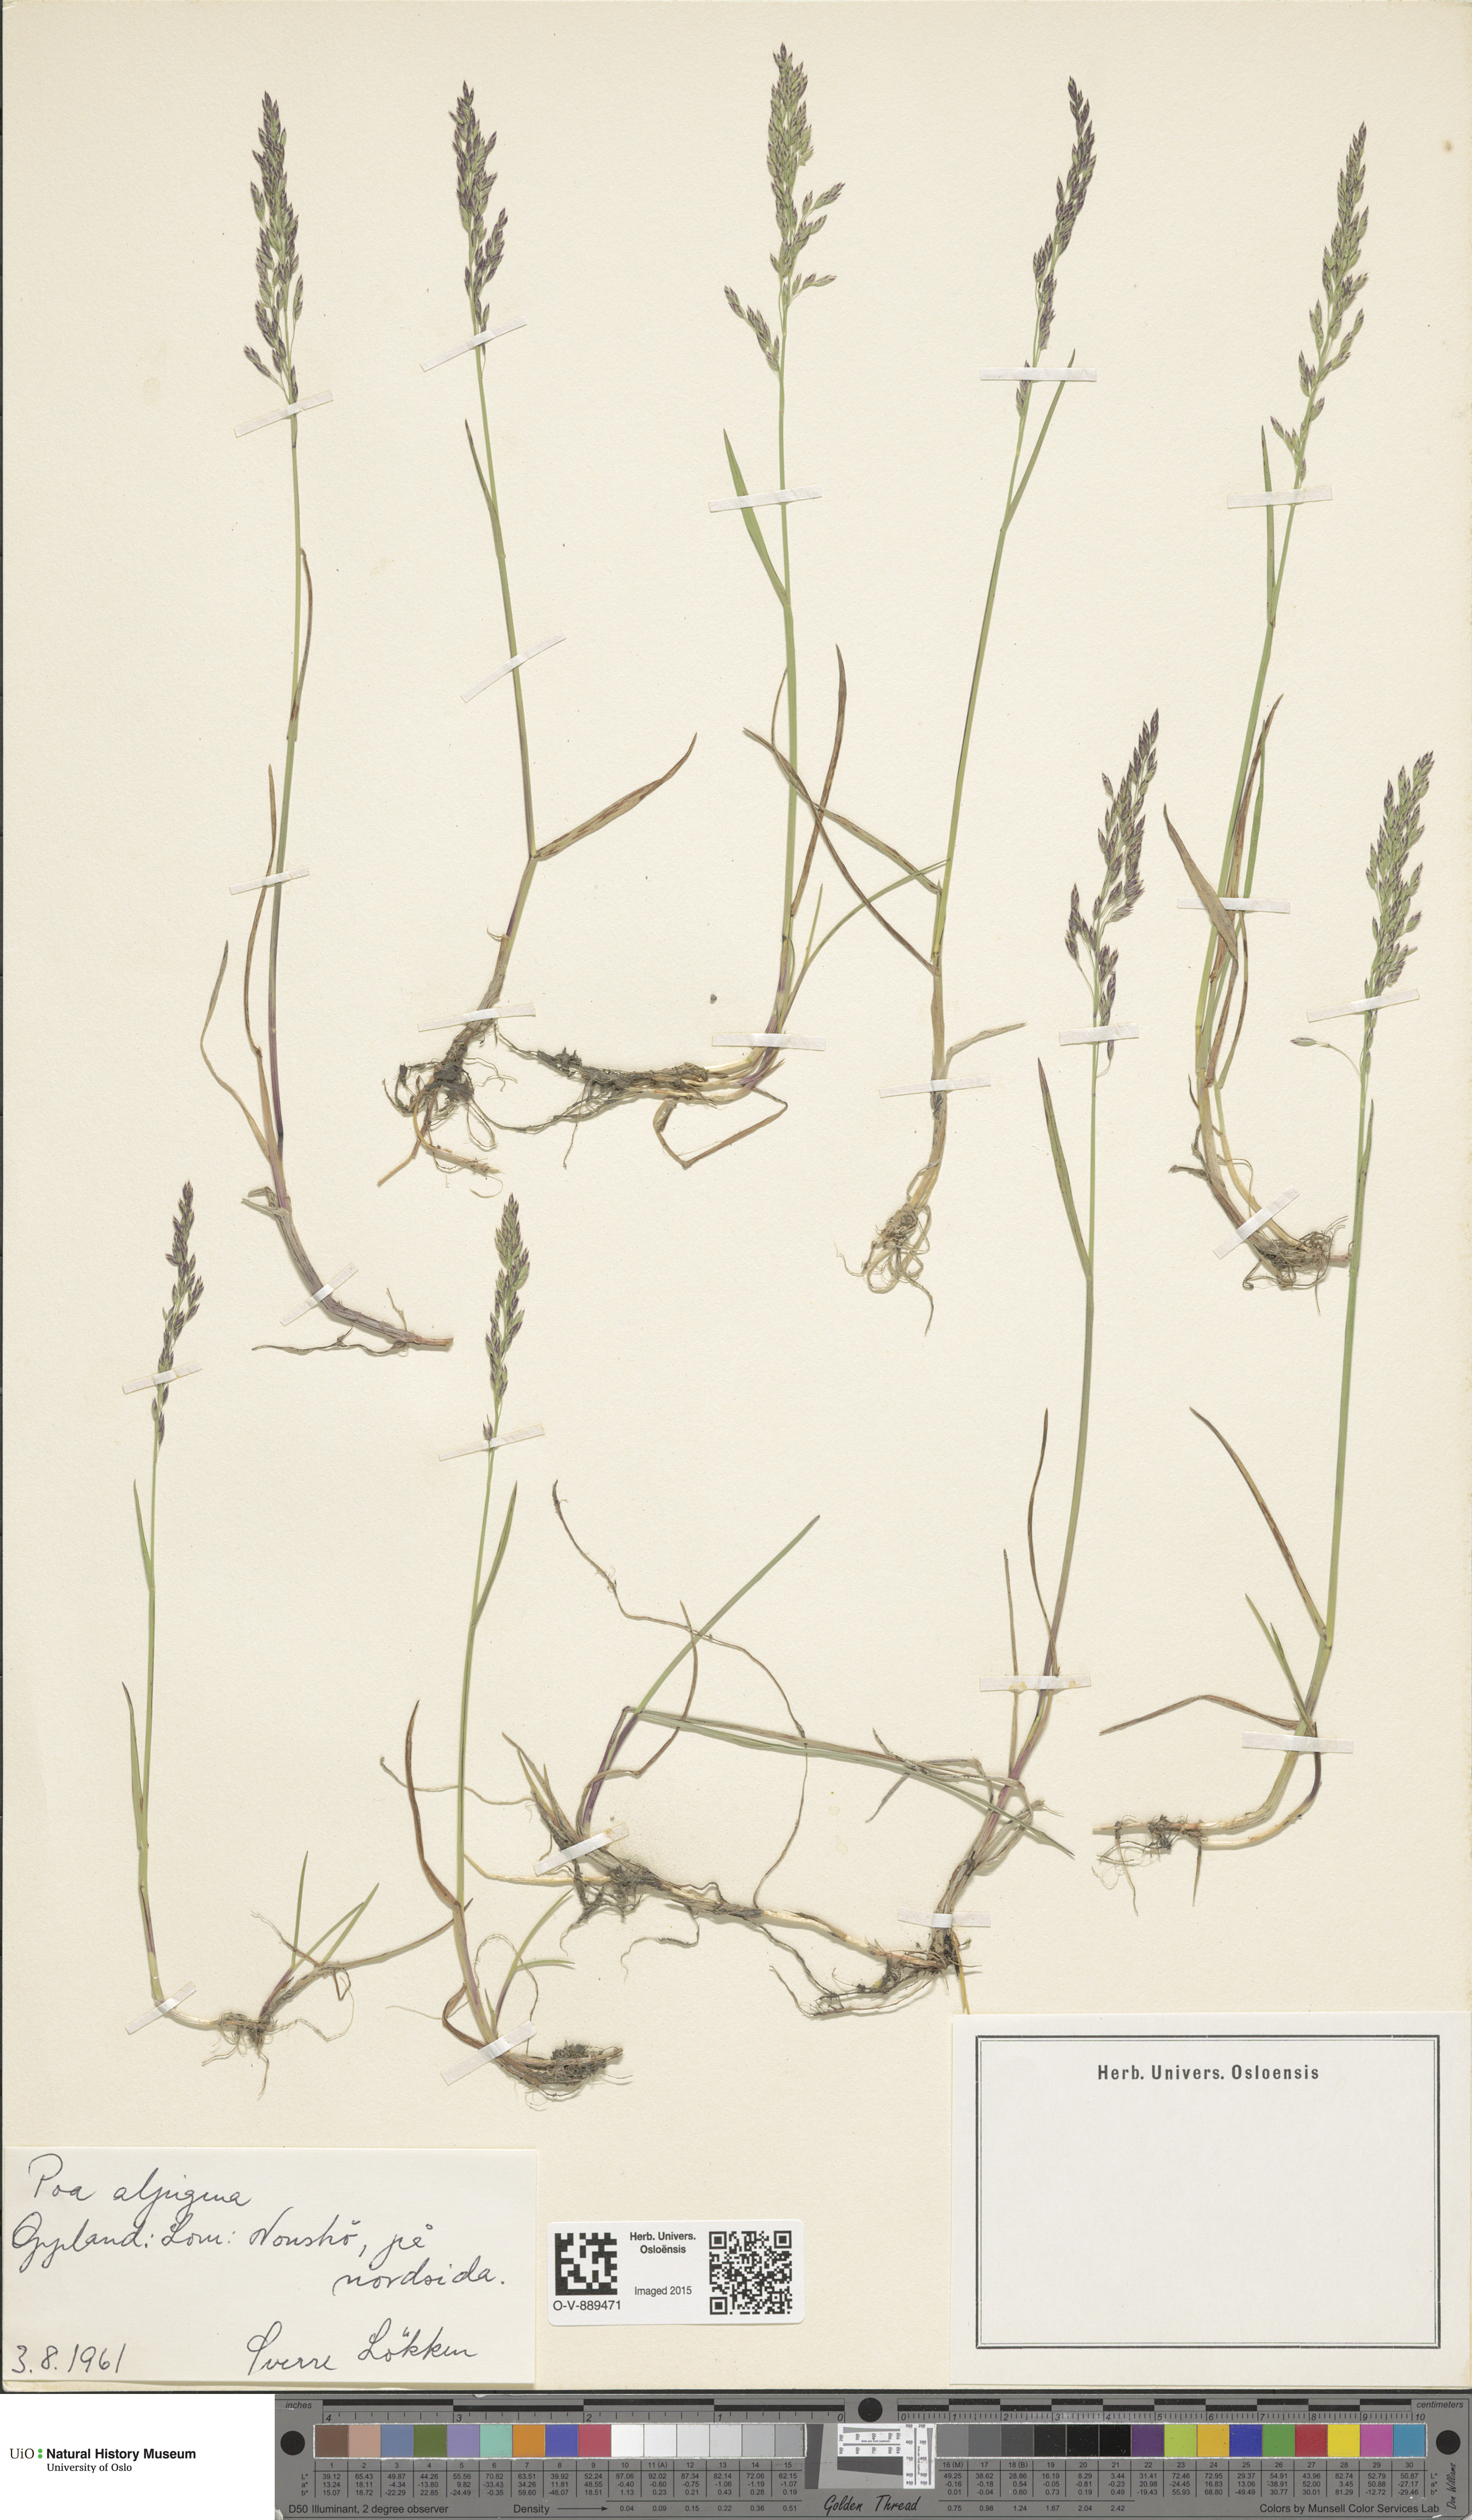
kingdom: Plantae
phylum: Tracheophyta
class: Liliopsida
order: Poales
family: Poaceae
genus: Poa
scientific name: Poa alpigena
